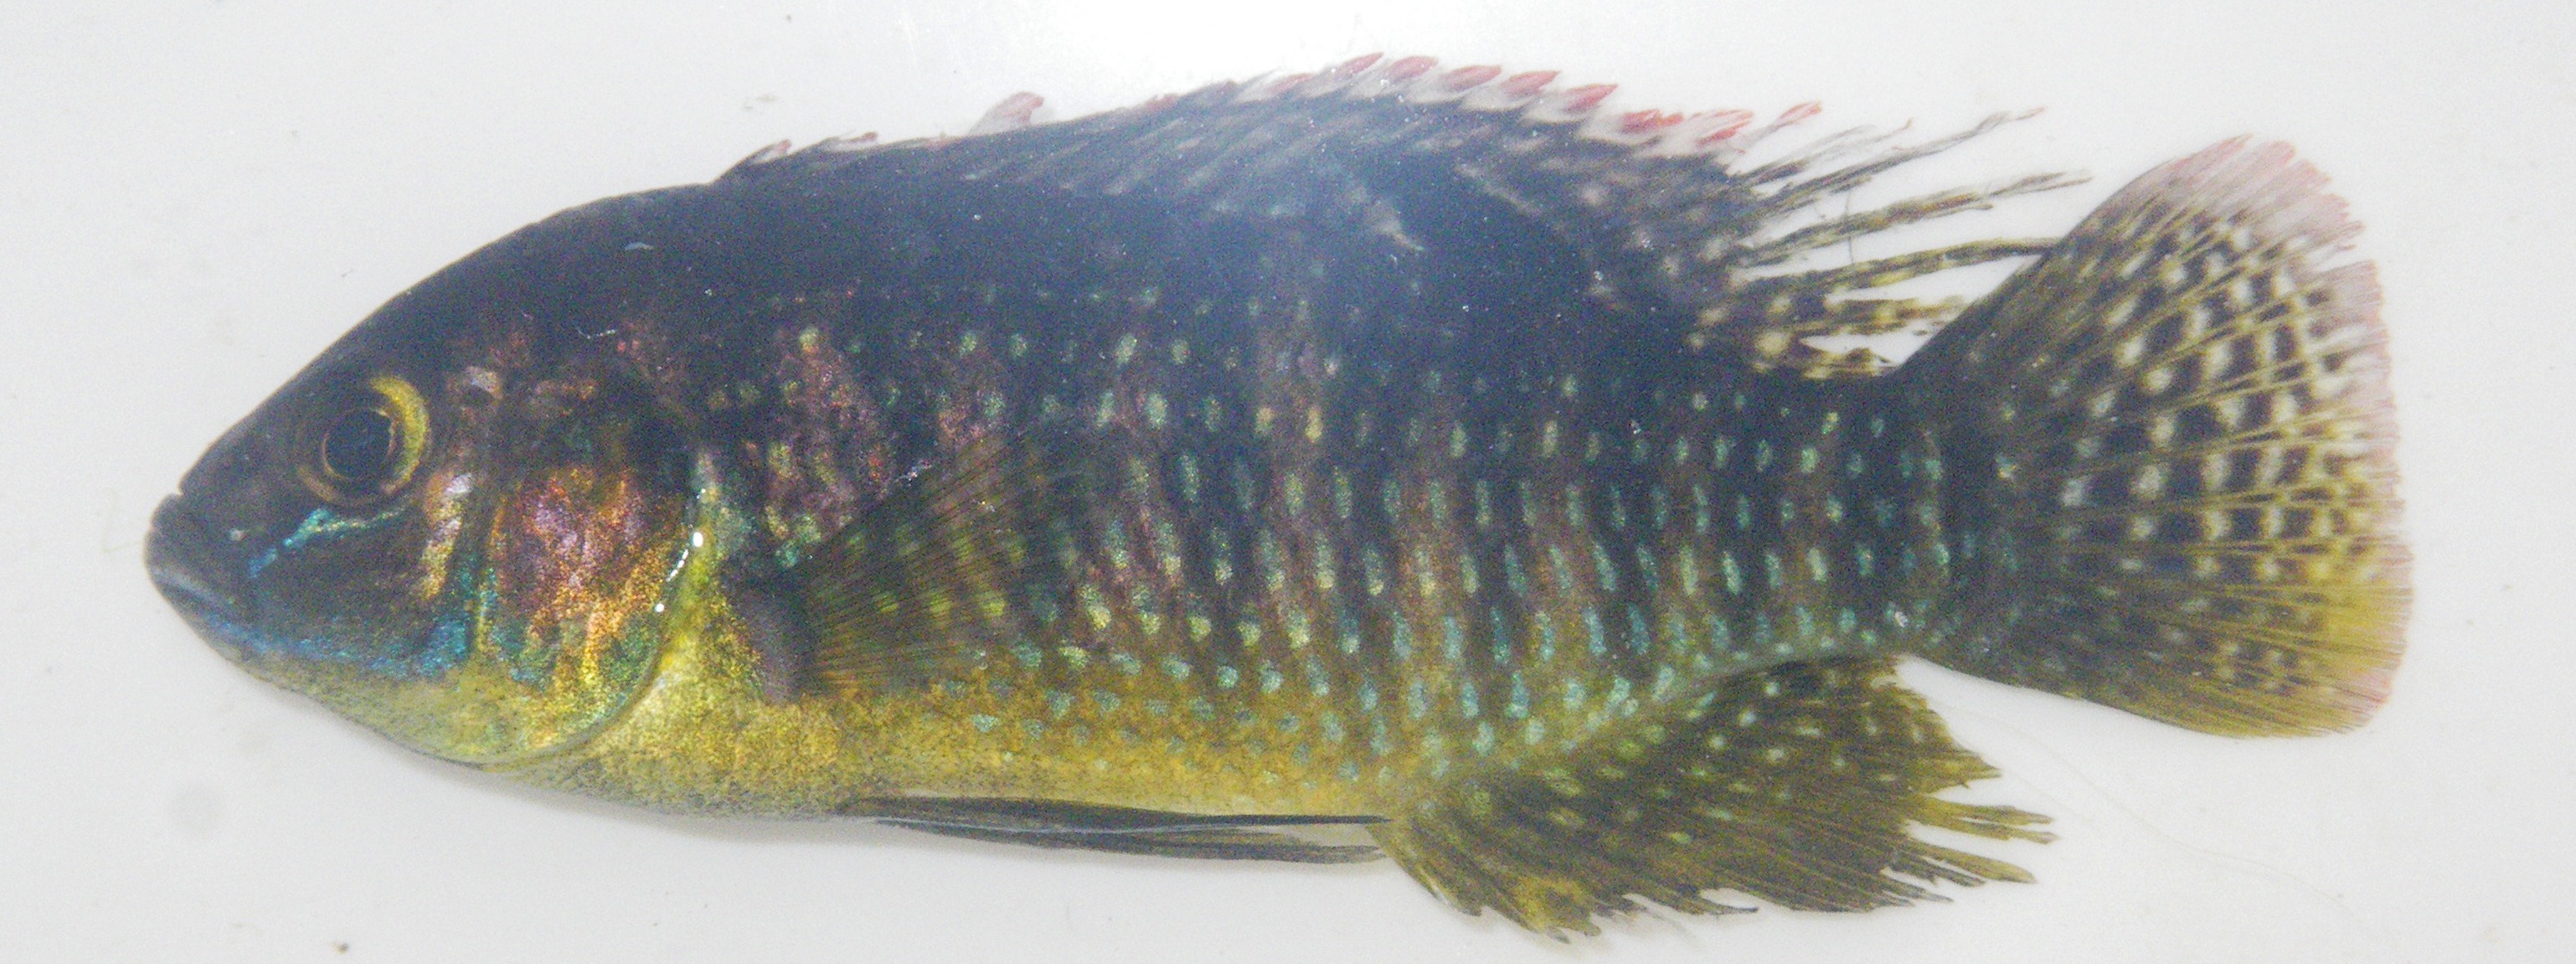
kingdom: Animalia
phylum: Chordata
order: Perciformes
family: Cichlidae
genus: Tilapia
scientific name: Tilapia ruweti
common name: Okavango tilapia
